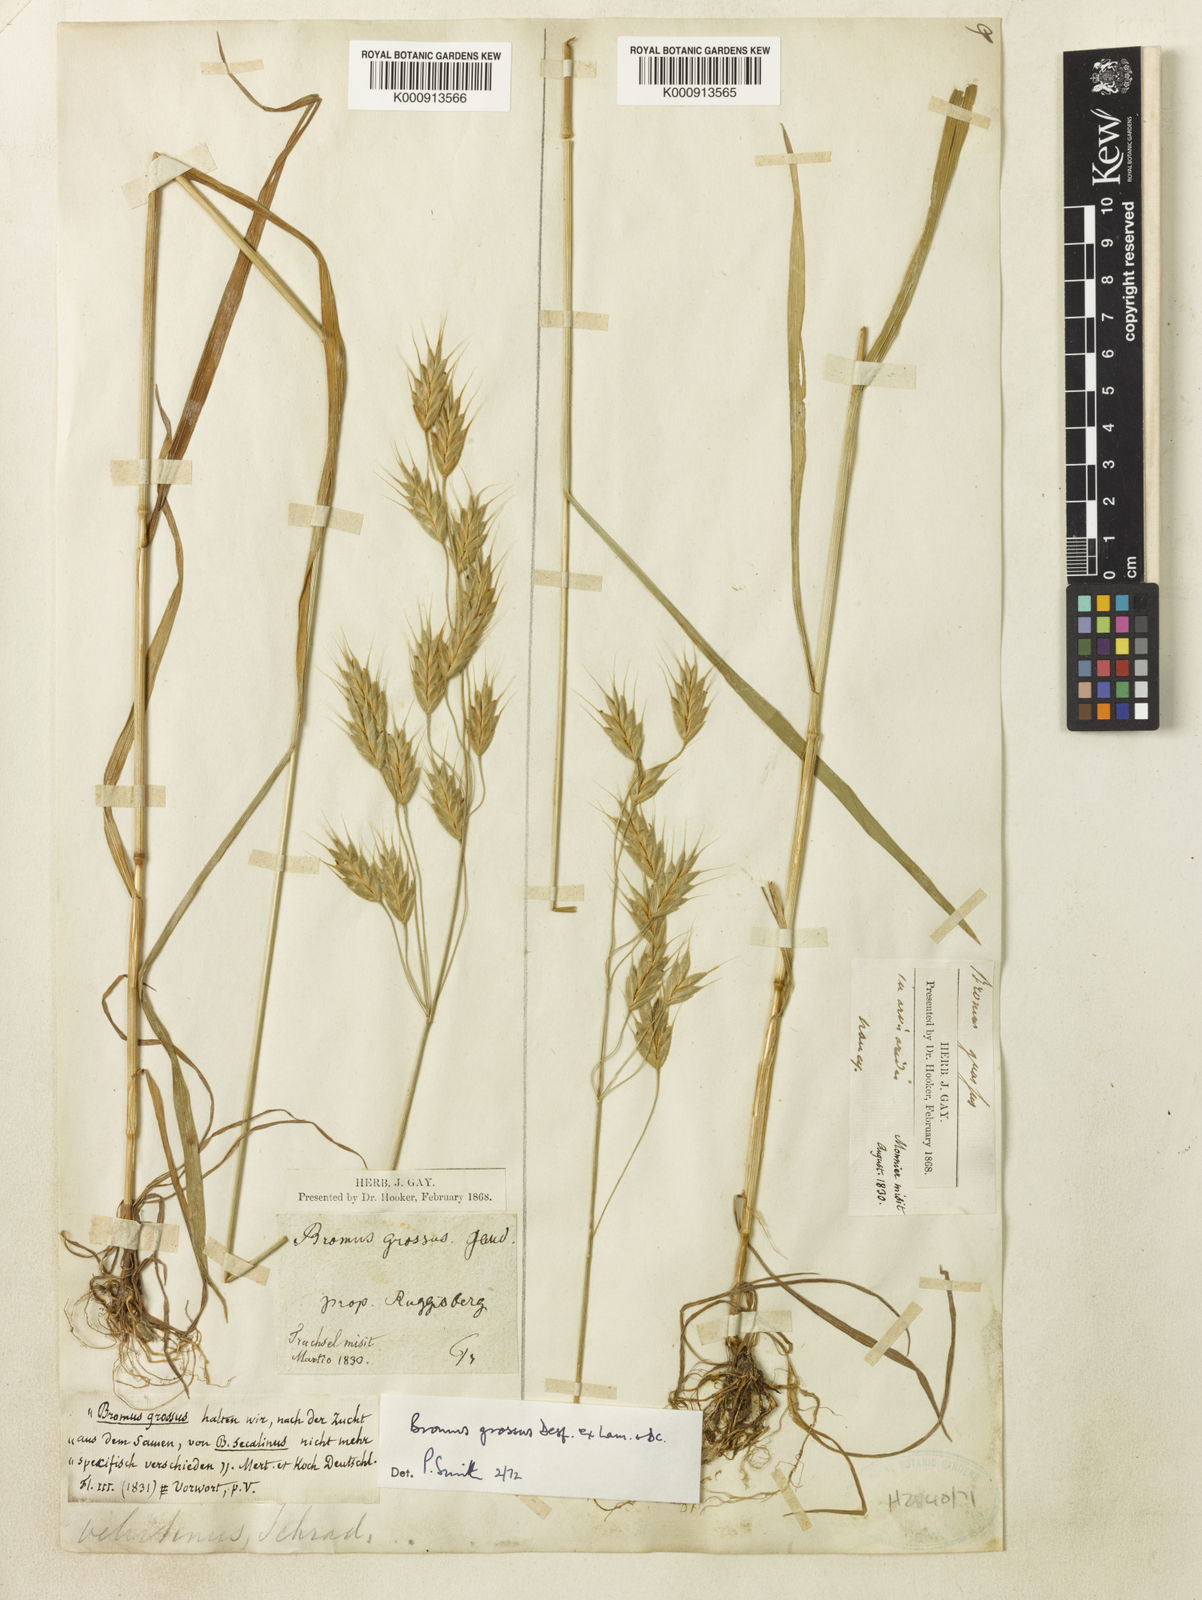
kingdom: Plantae
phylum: Tracheophyta
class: Liliopsida
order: Poales
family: Poaceae
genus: Bromus
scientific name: Bromus grossus
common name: Whiskered brome
